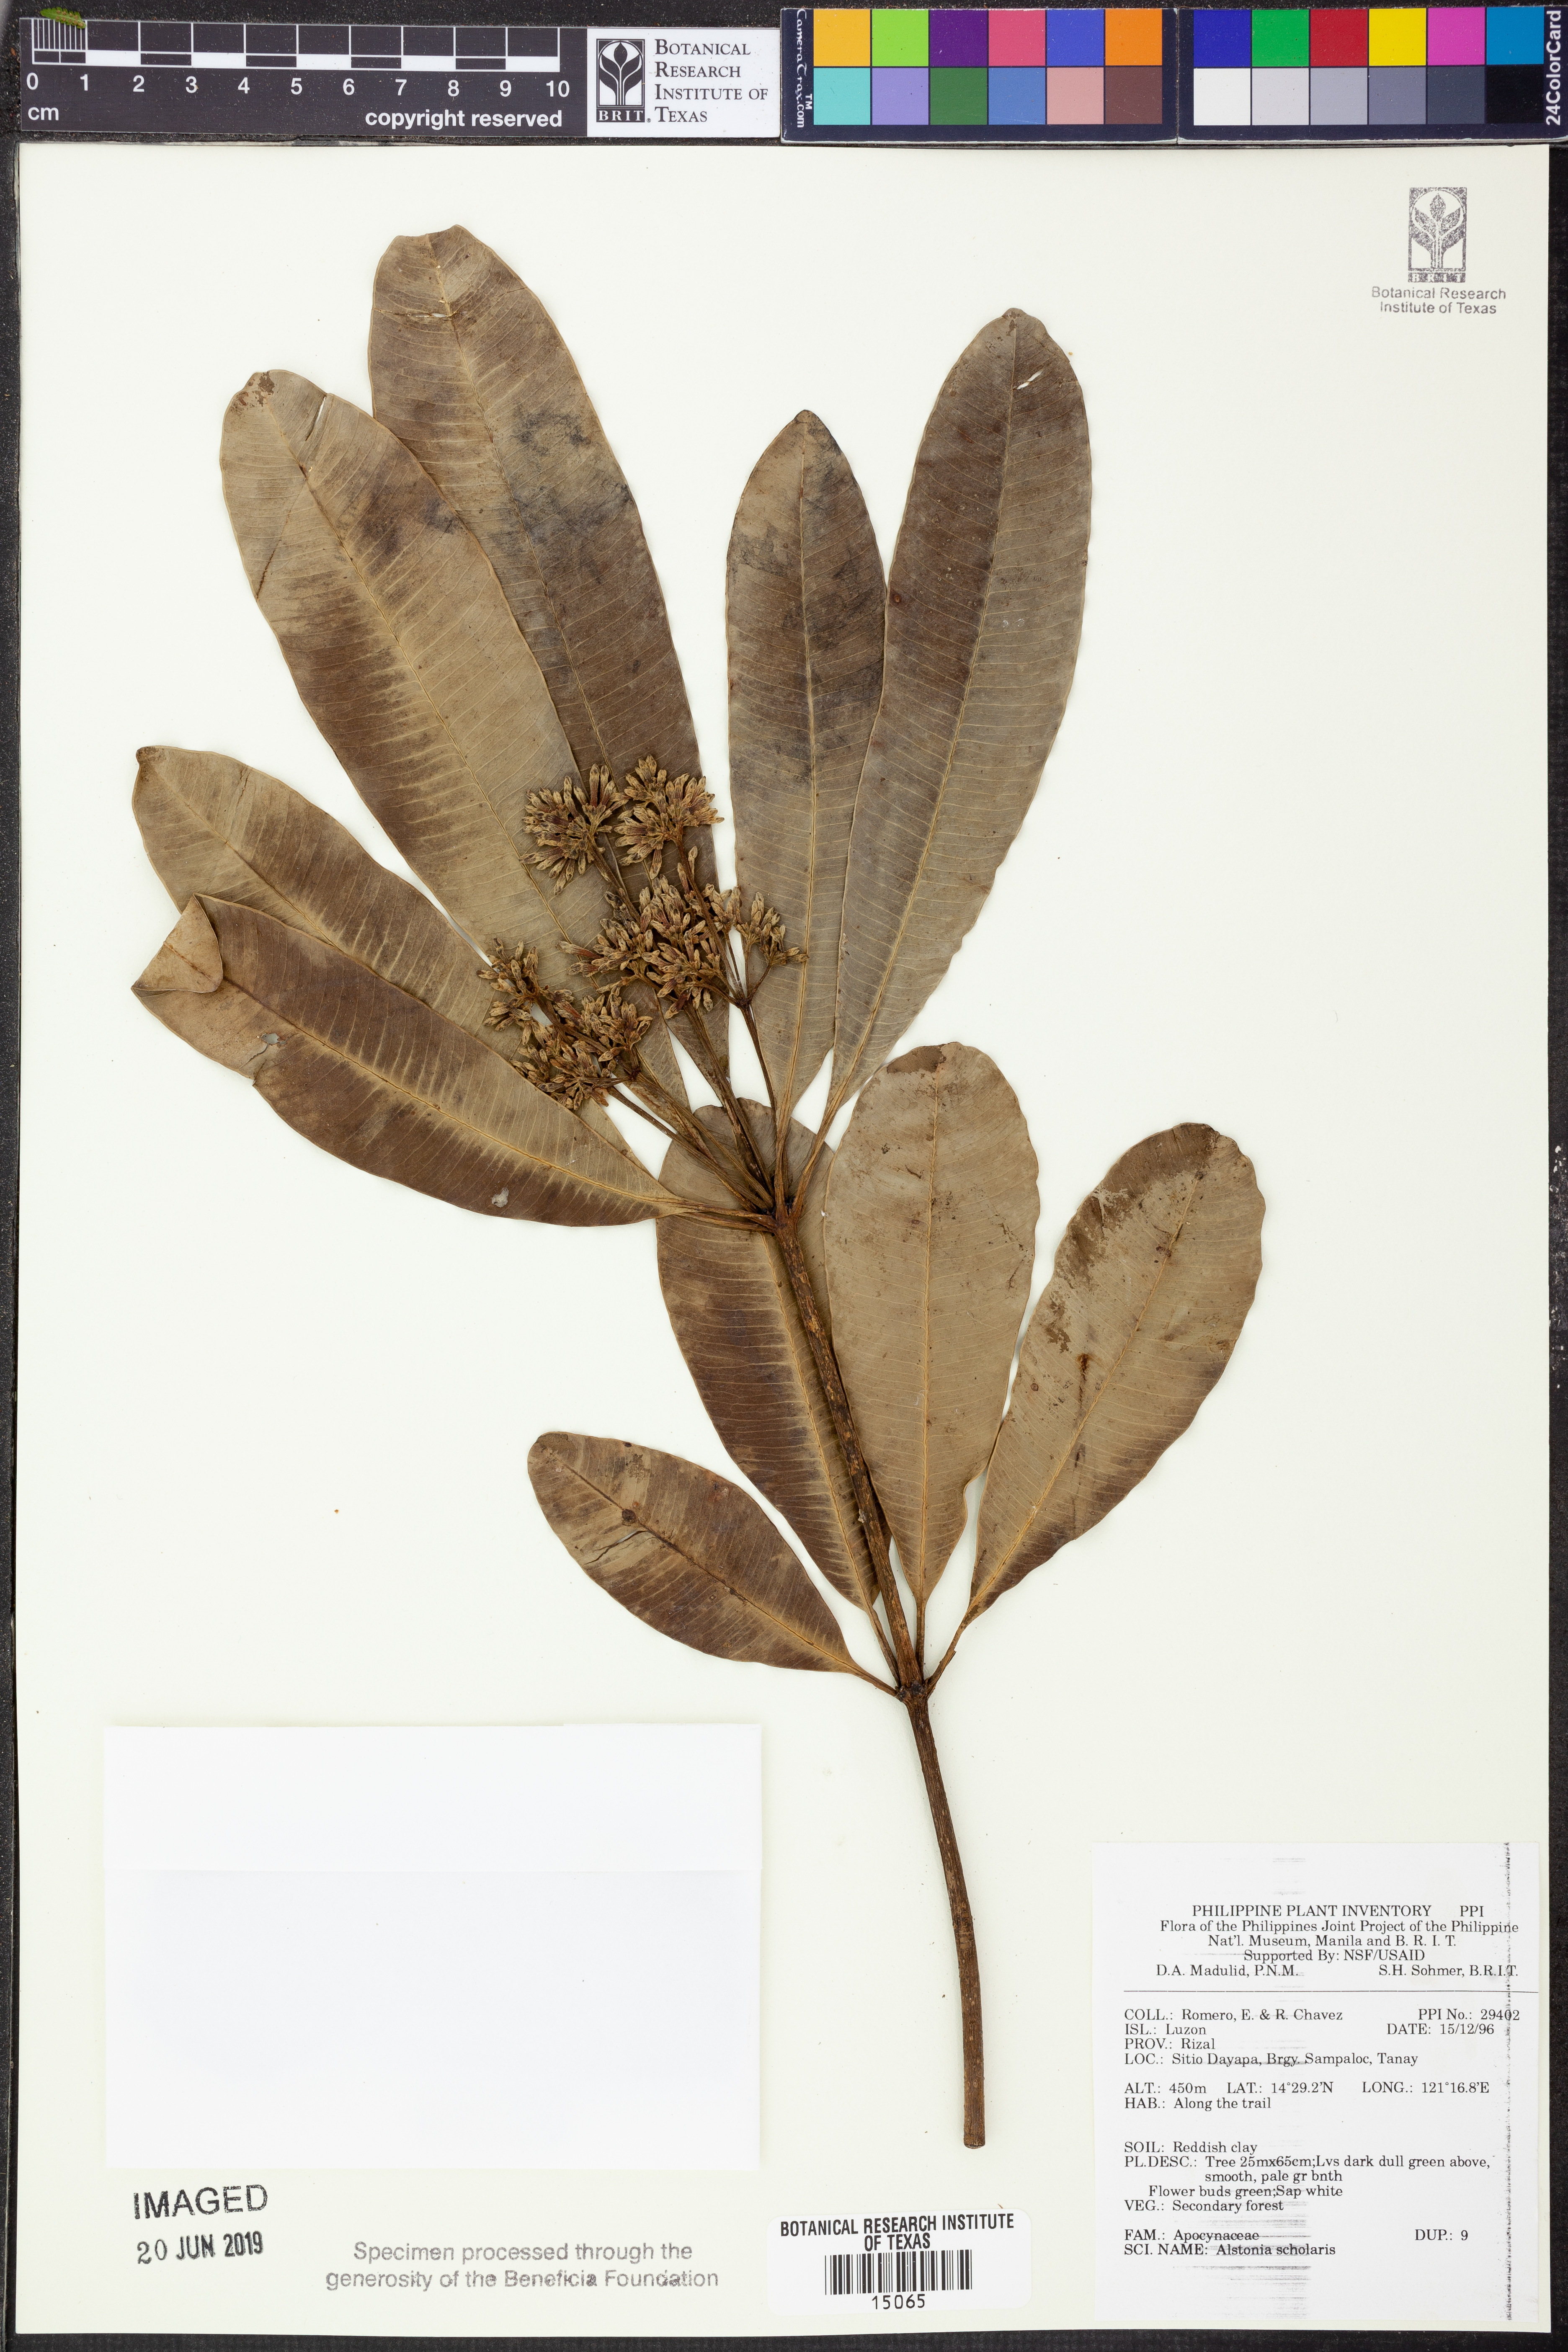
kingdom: Plantae
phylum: Tracheophyta
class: Magnoliopsida
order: Gentianales
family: Apocynaceae
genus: Alstonia
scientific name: Alstonia scholaris
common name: White cheesewood
